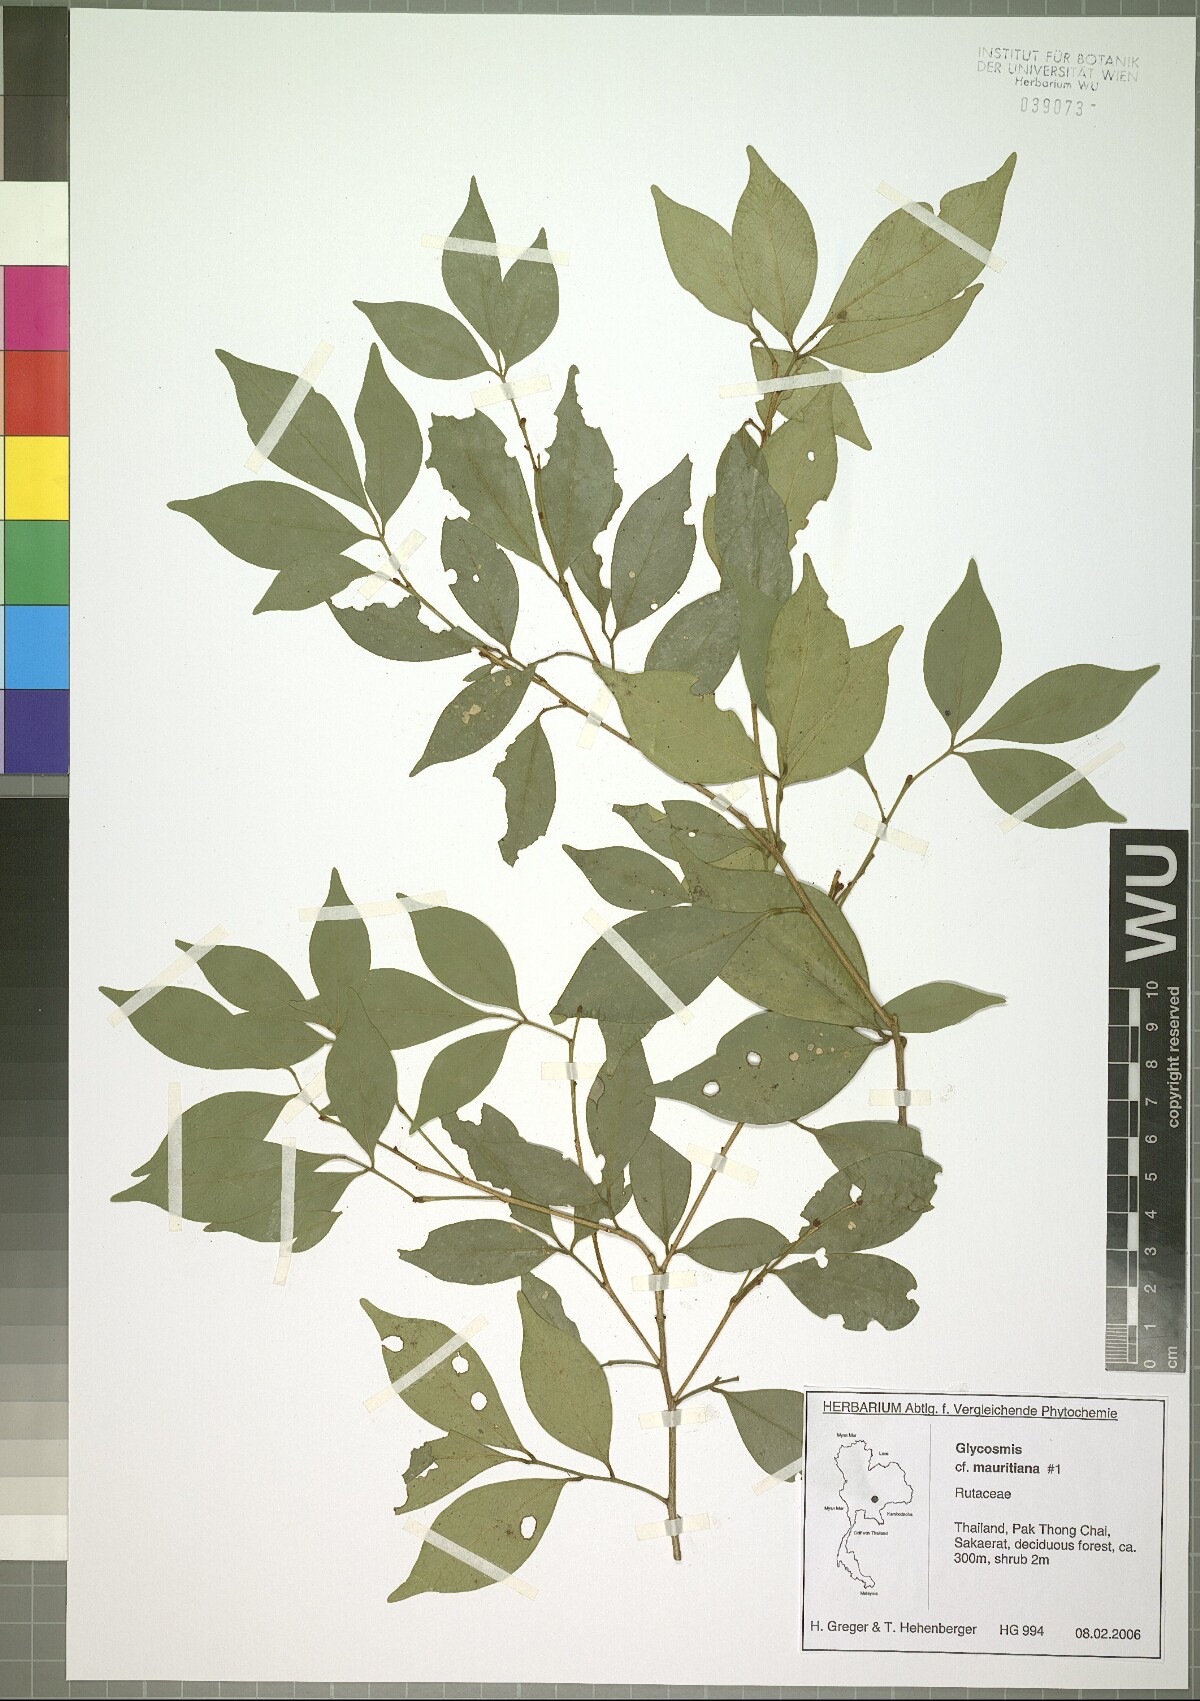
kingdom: Plantae
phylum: Tracheophyta
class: Magnoliopsida
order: Sapindales
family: Rutaceae
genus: Glycosmis
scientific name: Glycosmis mauritiana
